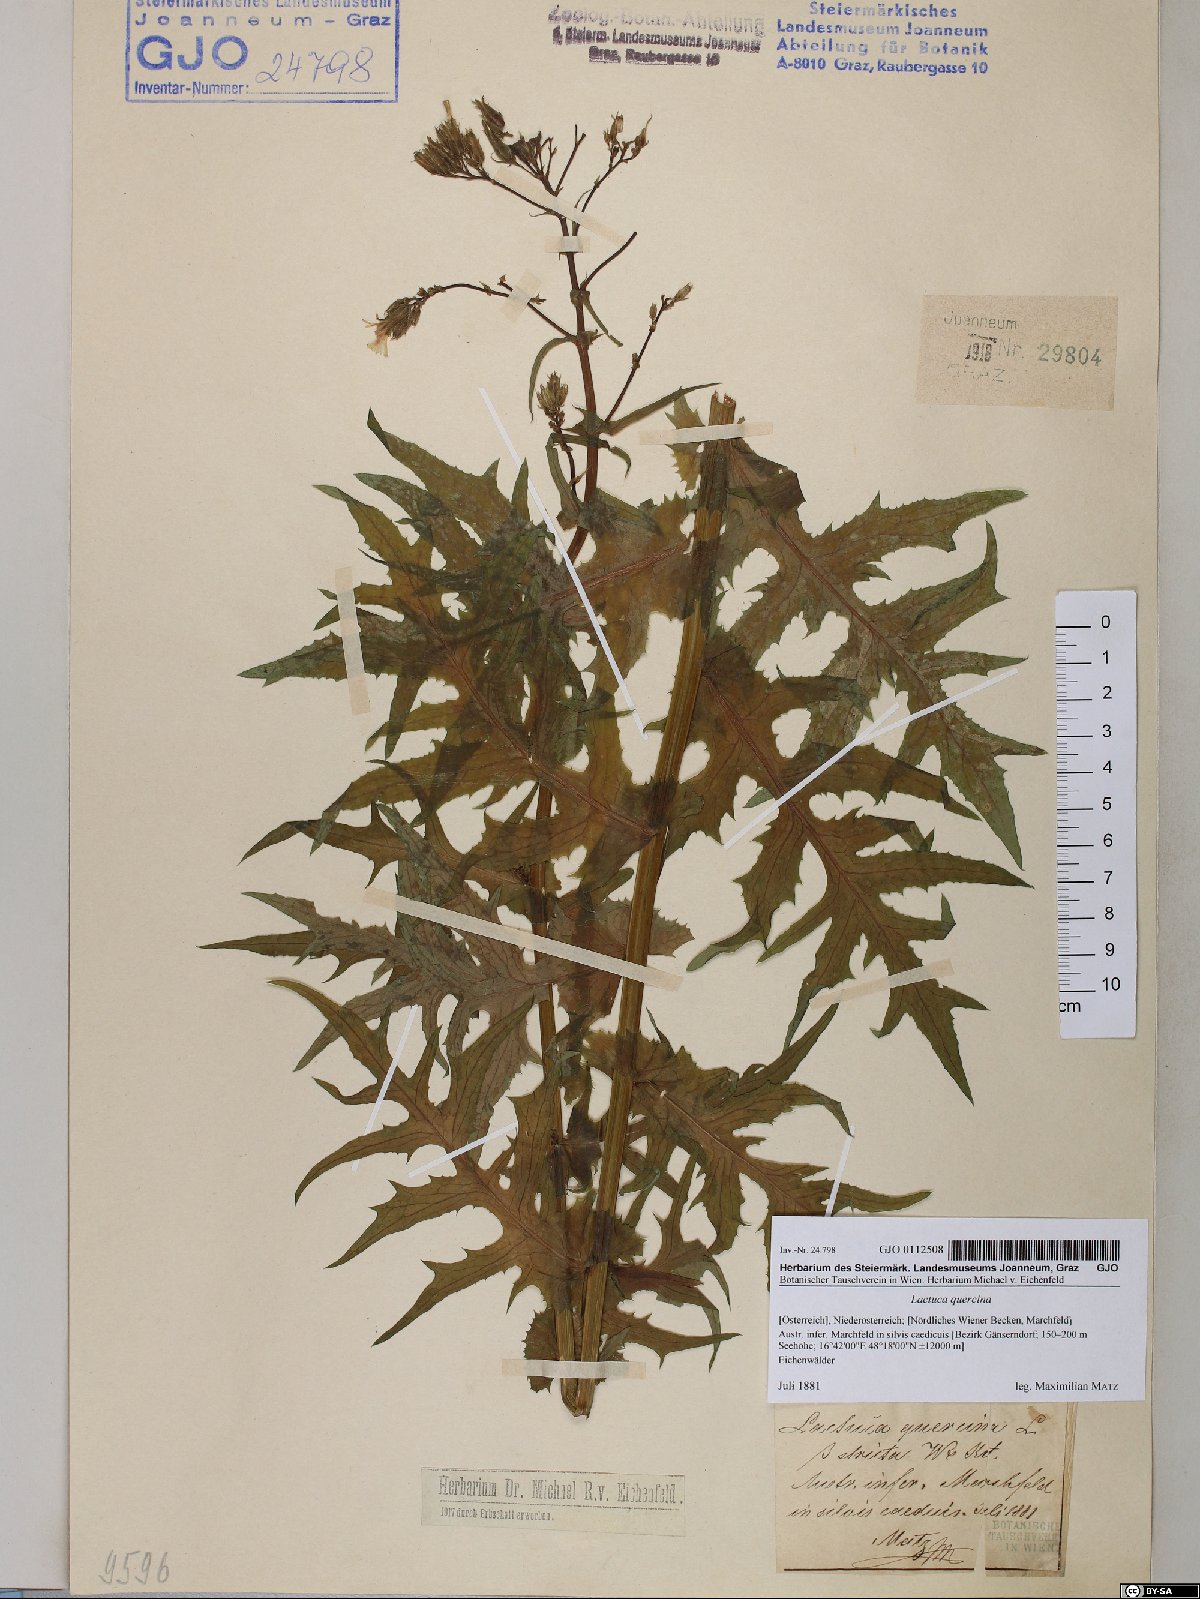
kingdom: Plantae
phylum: Tracheophyta
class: Magnoliopsida
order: Asterales
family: Asteraceae
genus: Lactuca
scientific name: Lactuca quercina
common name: Wild lettuce
